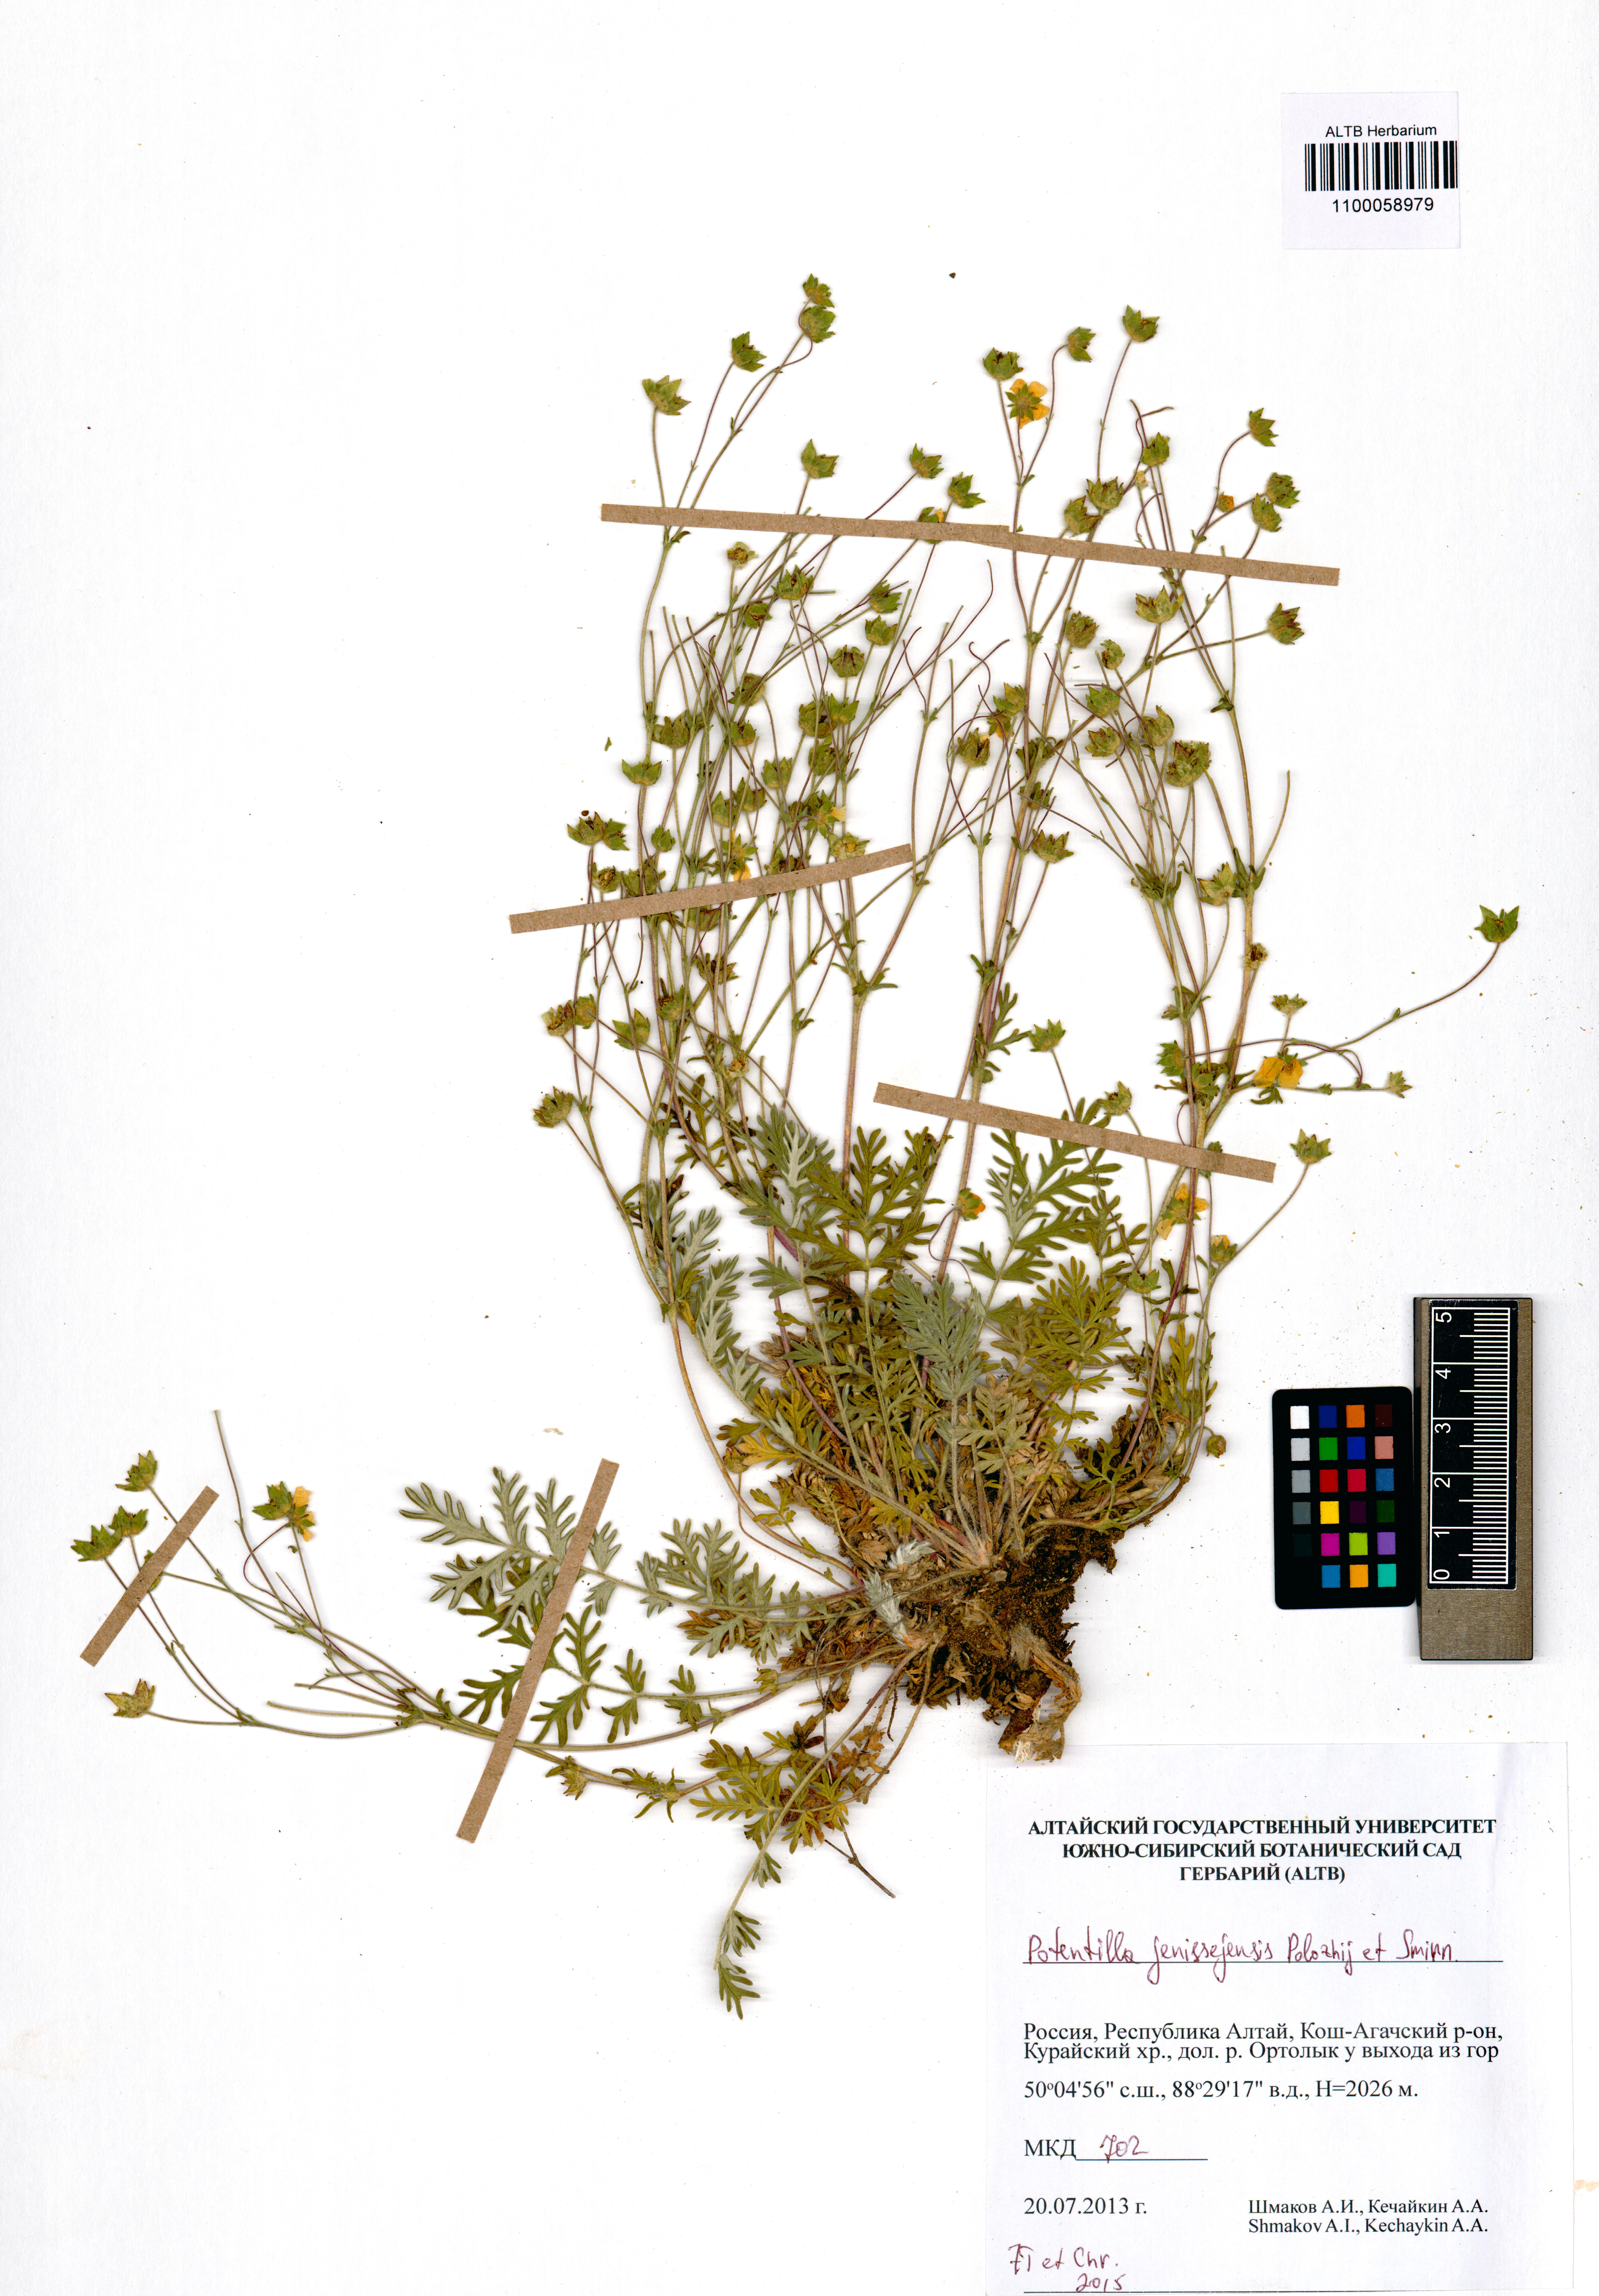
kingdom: Plantae
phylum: Tracheophyta
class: Magnoliopsida
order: Rosales
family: Rosaceae
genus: Potentilla
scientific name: Potentilla jenissejensis
